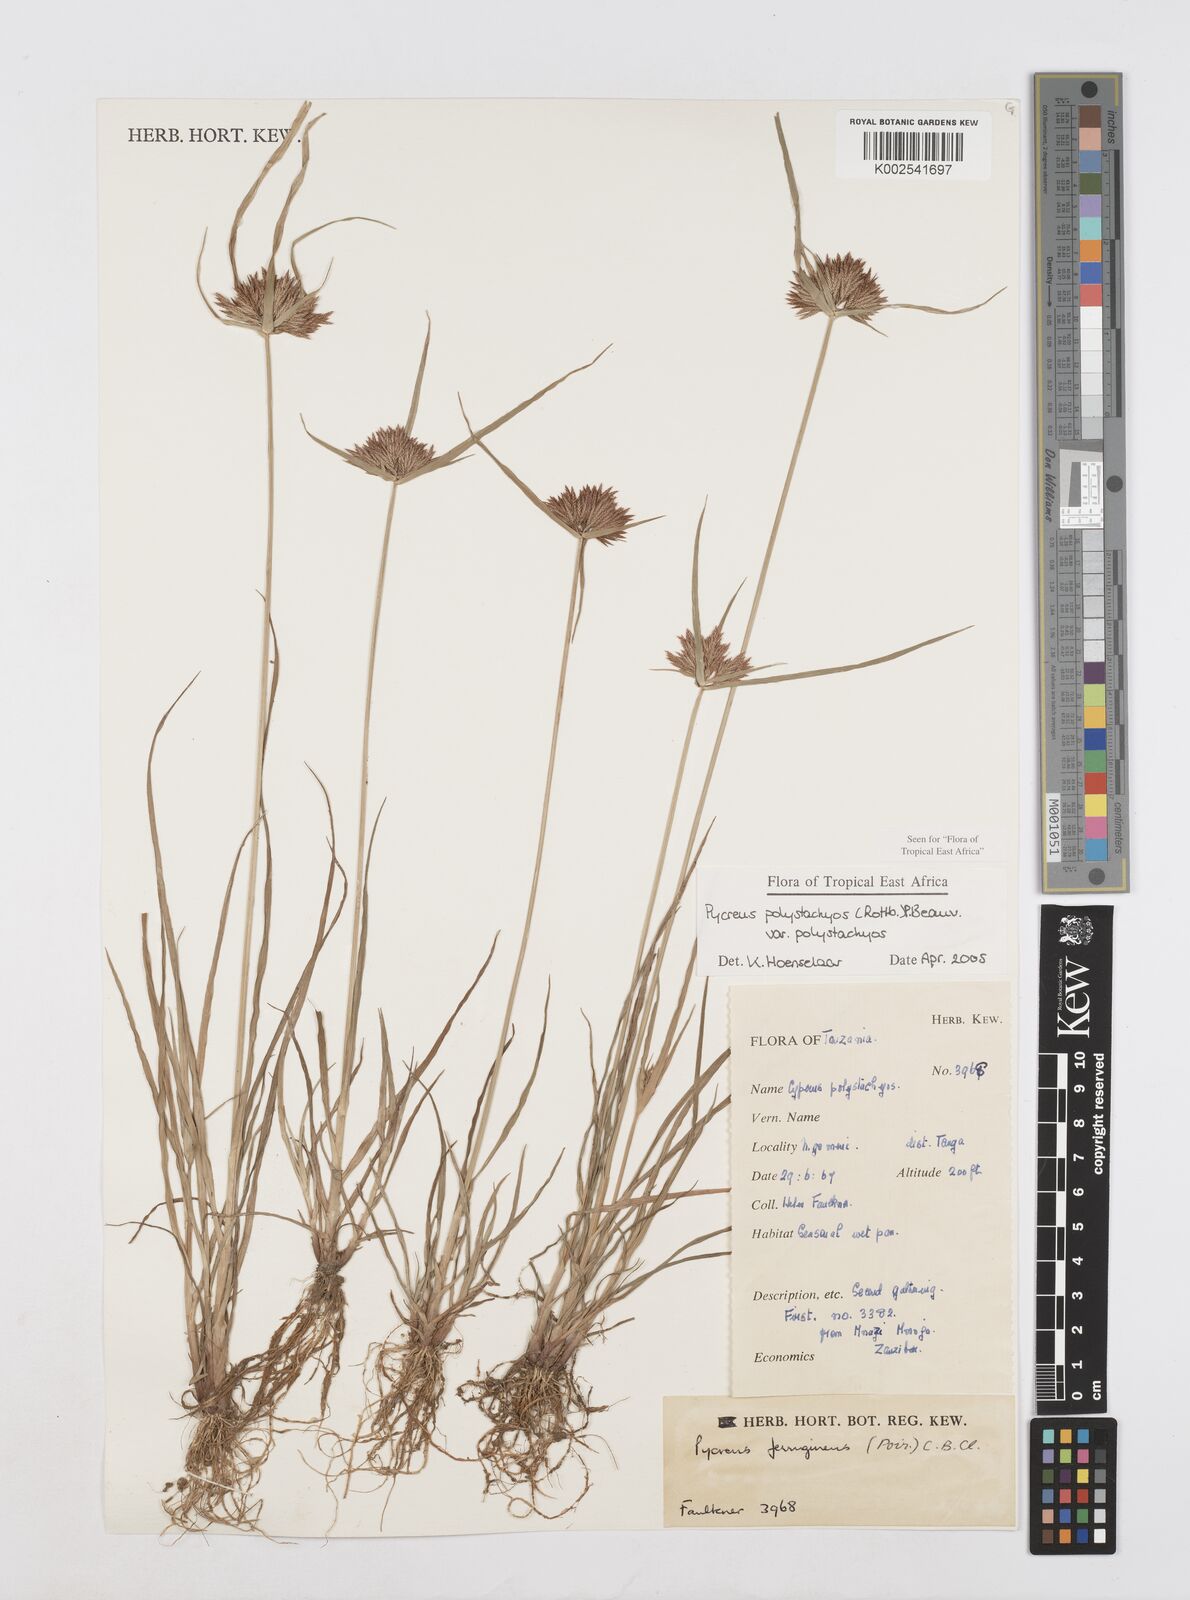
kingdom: Plantae
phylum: Tracheophyta
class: Liliopsida
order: Poales
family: Cyperaceae
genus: Cyperus
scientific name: Cyperus polystachyos
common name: Bunchy flat sedge
